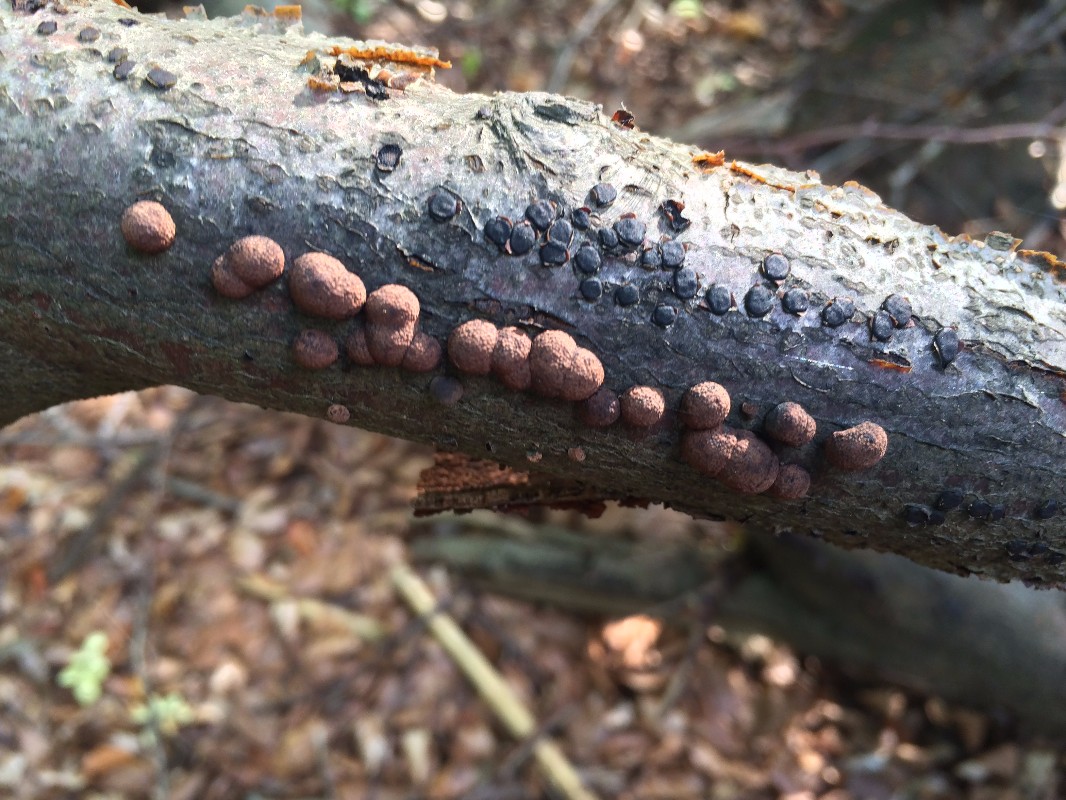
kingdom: Fungi
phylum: Ascomycota
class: Sordariomycetes
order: Xylariales
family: Hypoxylaceae
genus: Hypoxylon
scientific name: Hypoxylon fragiforme
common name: kuljordbær
